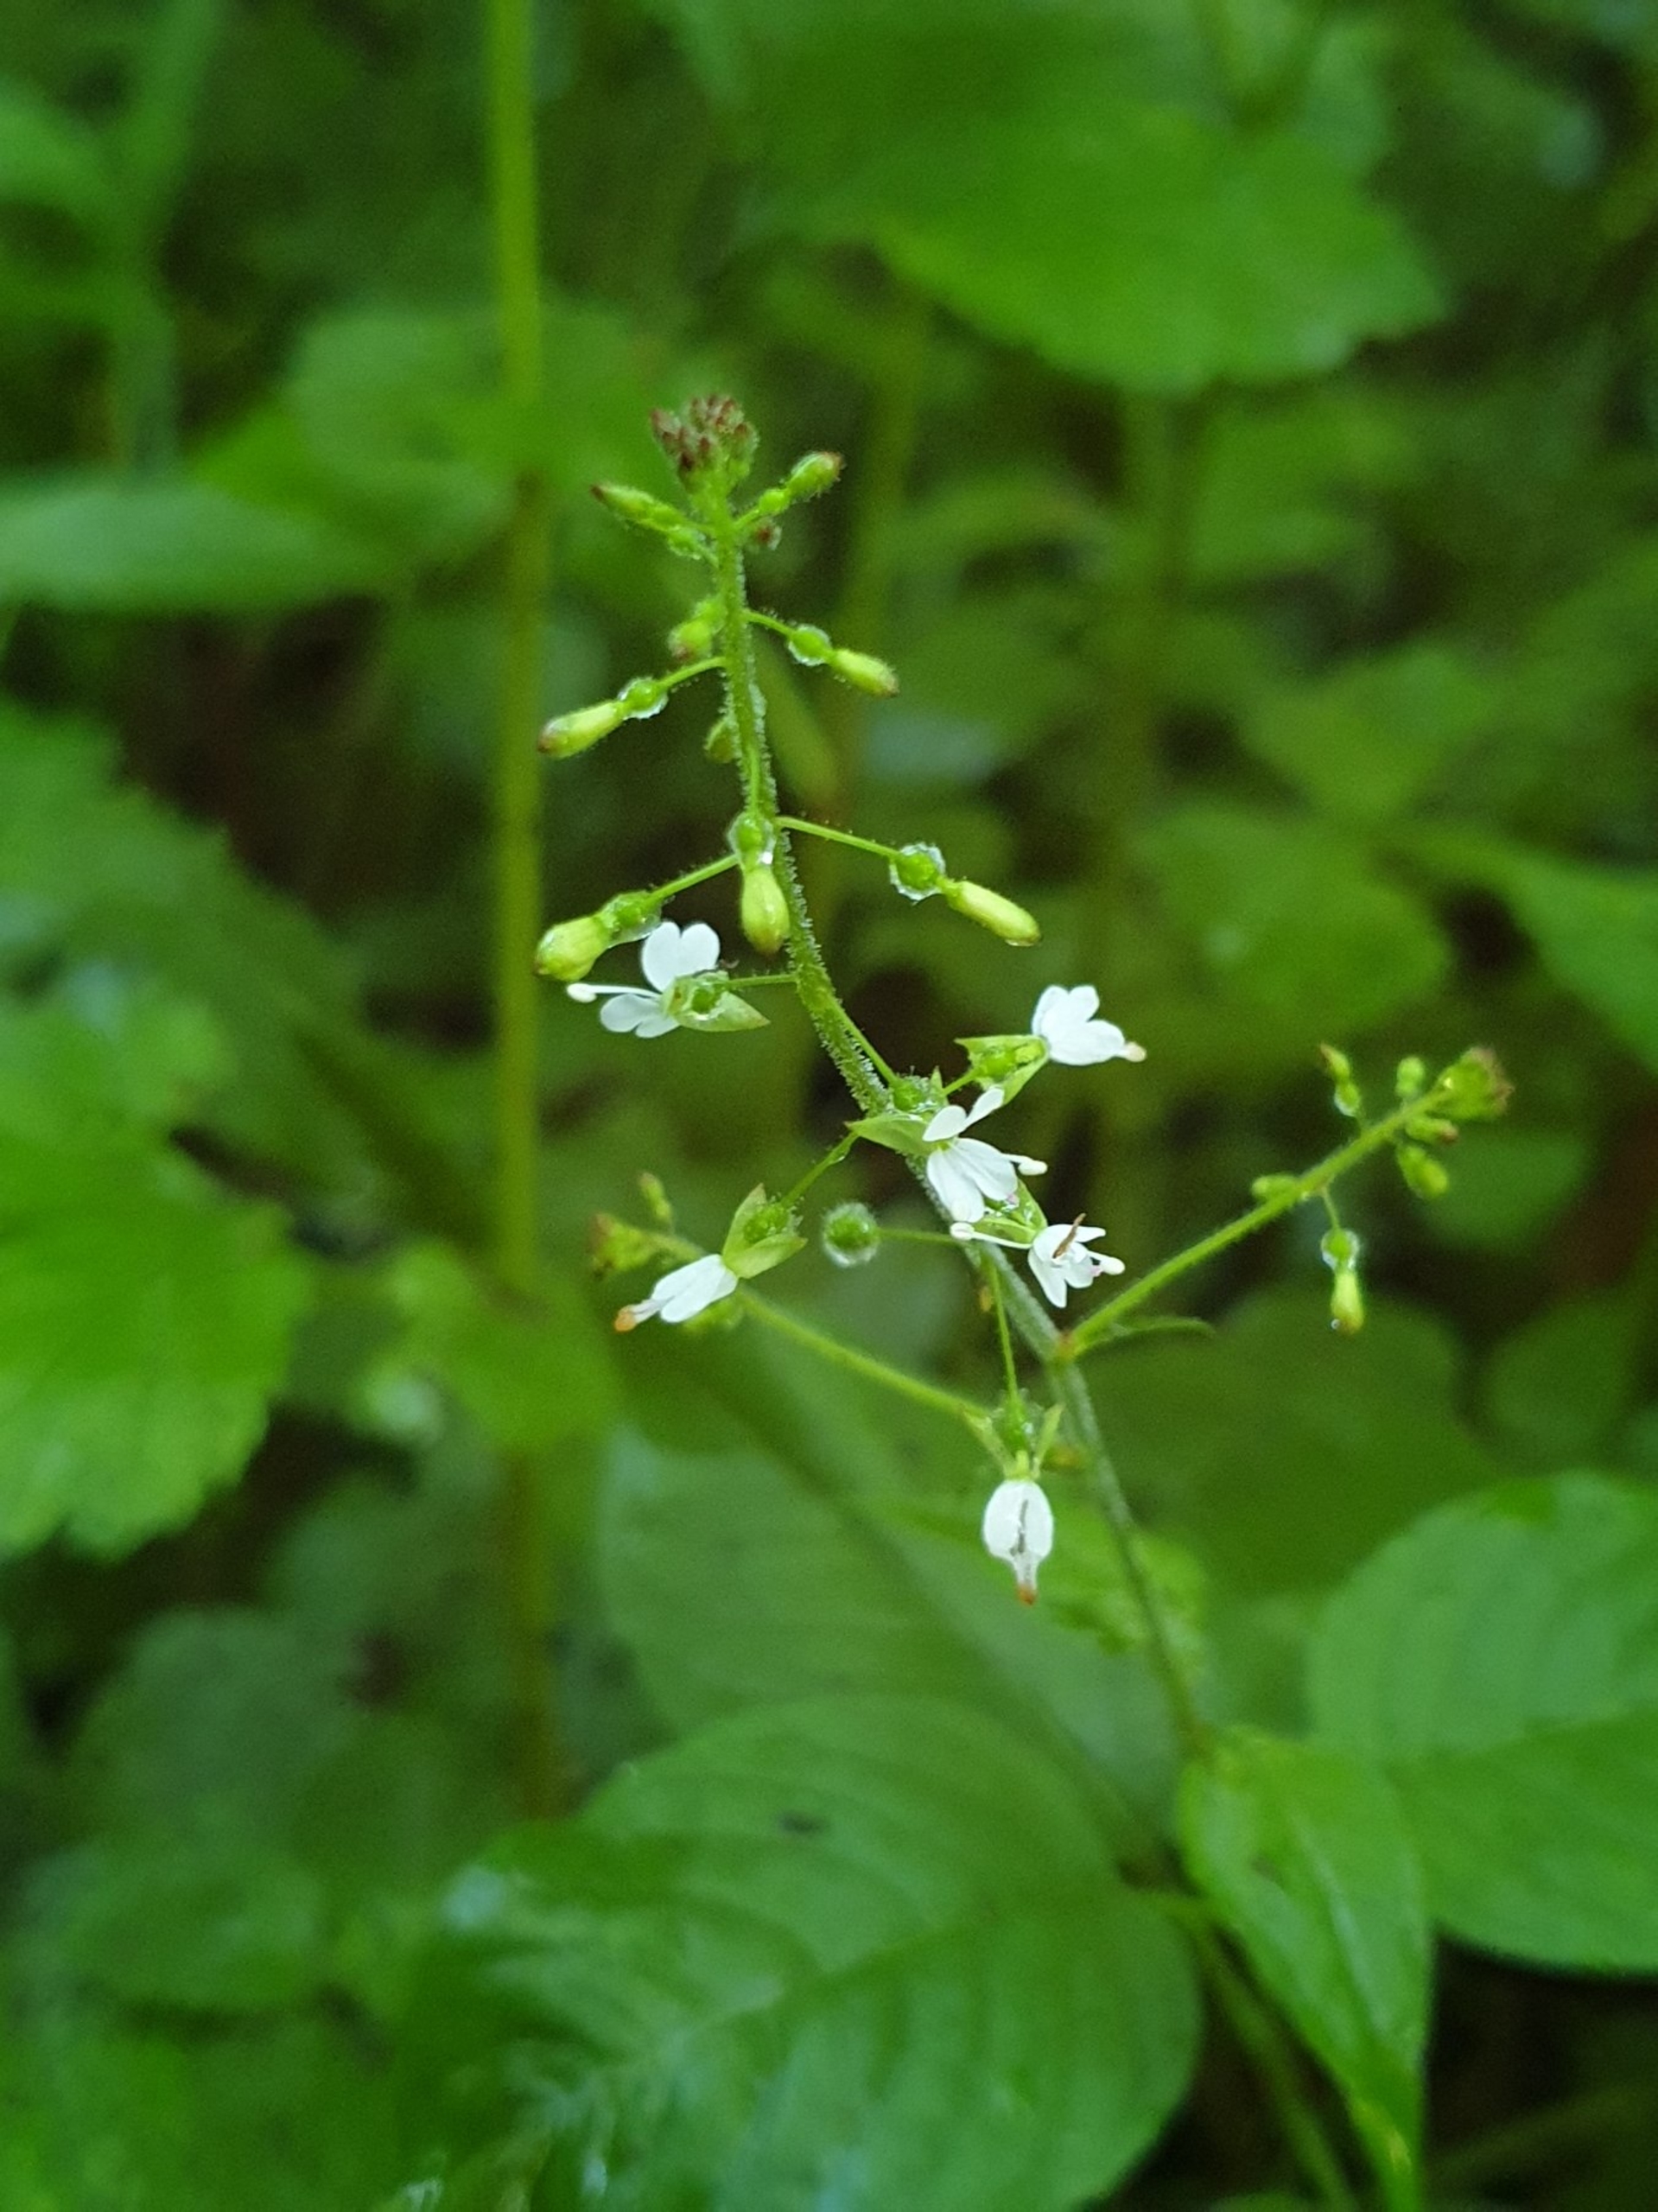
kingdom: Plantae
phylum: Tracheophyta
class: Magnoliopsida
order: Myrtales
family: Onagraceae
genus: Circaea
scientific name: Circaea lutetiana
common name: Dunet steffensurt
